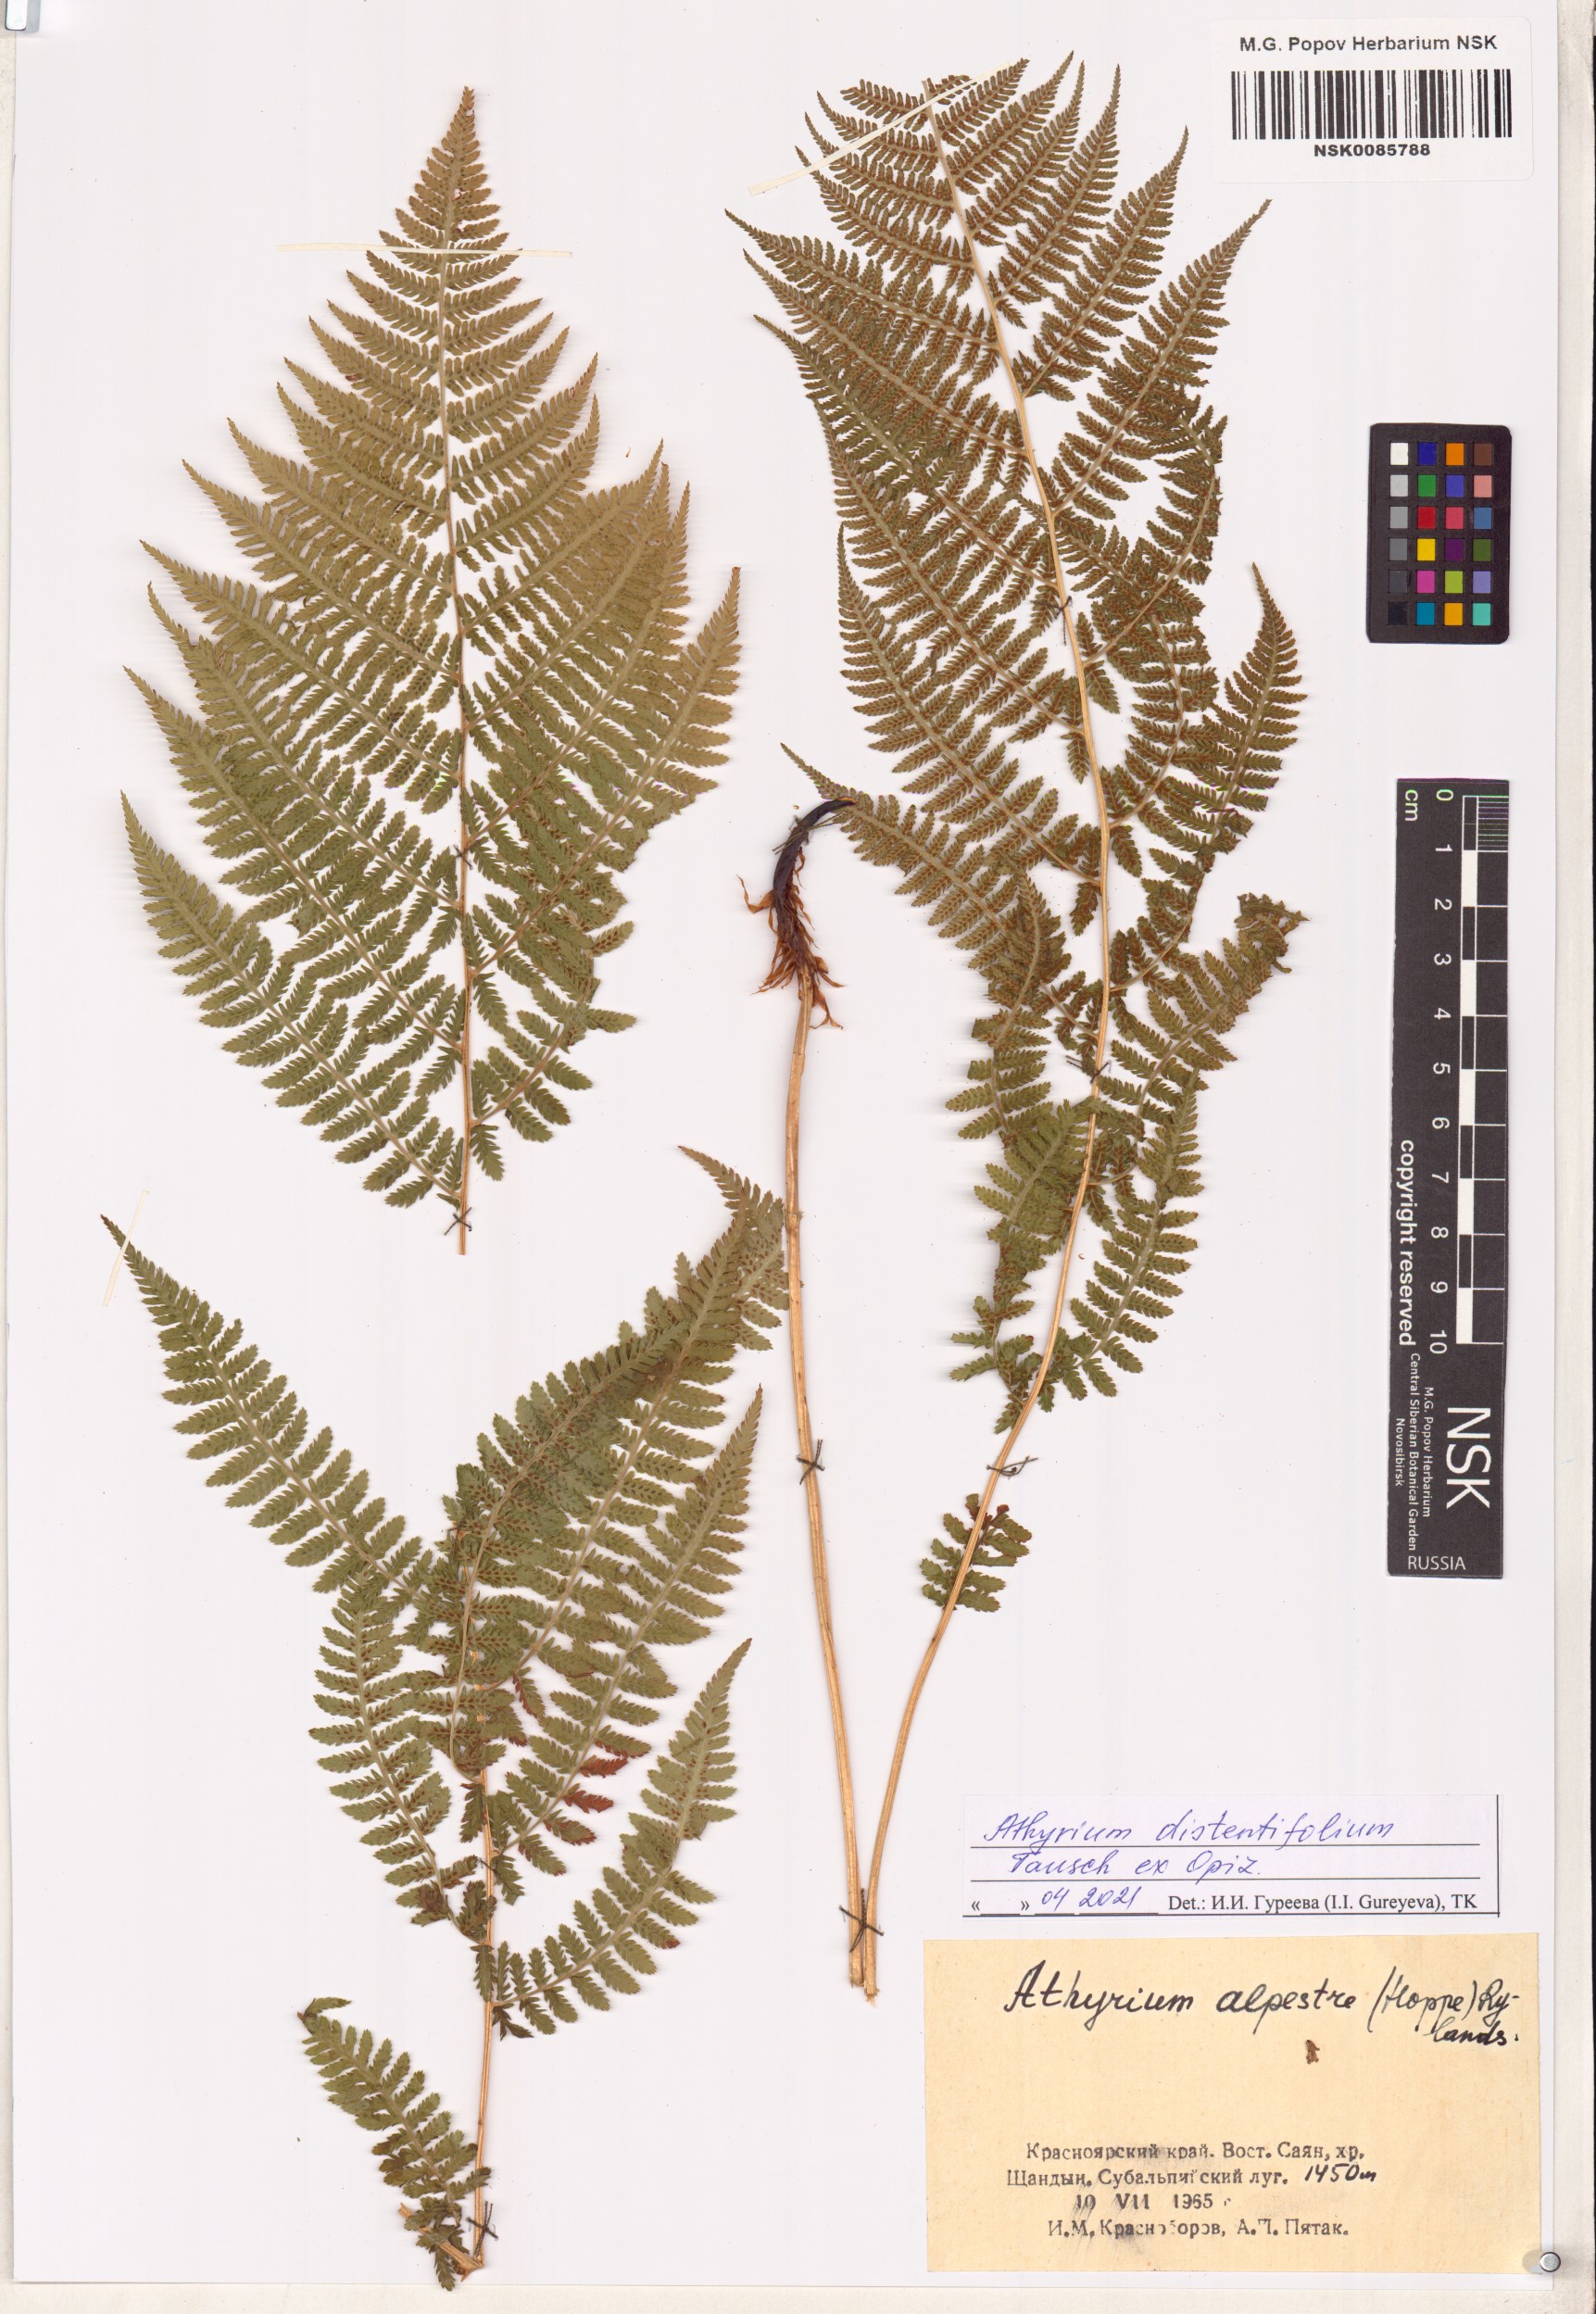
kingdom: Plantae
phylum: Tracheophyta
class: Polypodiopsida
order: Polypodiales
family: Athyriaceae
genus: Pseudathyrium
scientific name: Pseudathyrium alpestre
